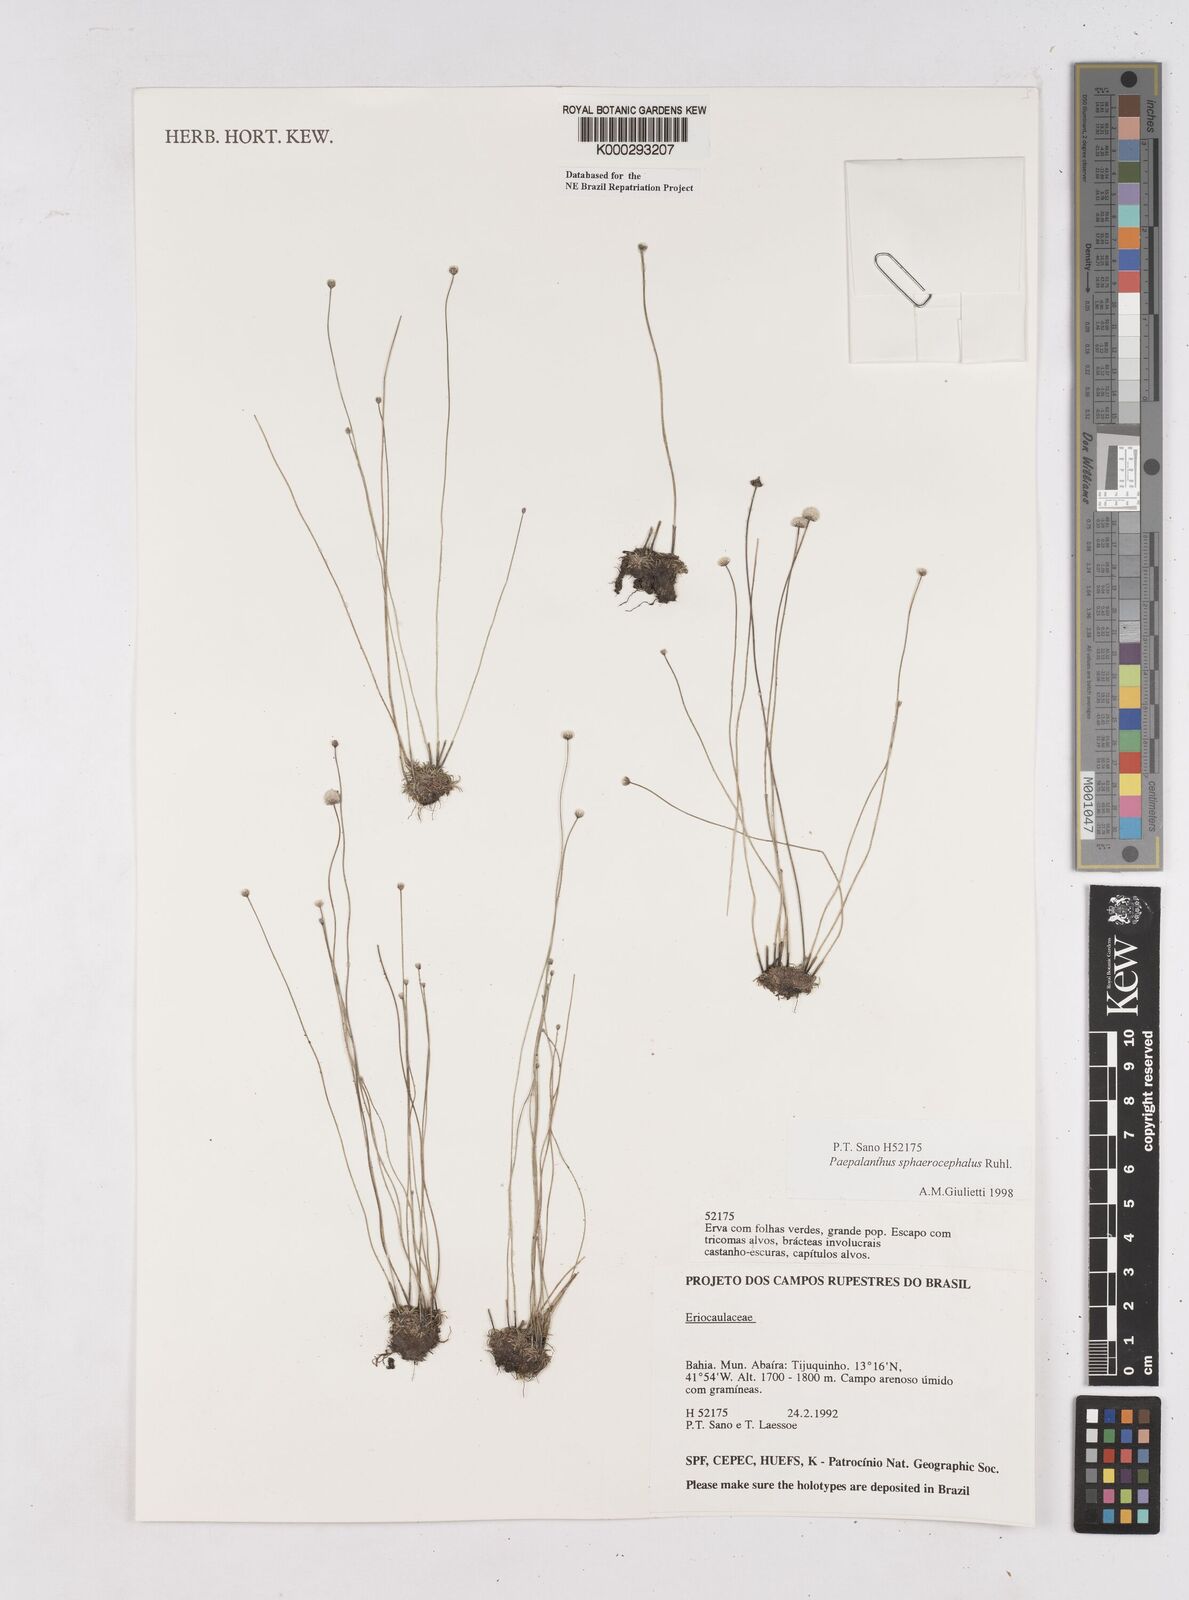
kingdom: Plantae
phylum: Tracheophyta
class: Liliopsida
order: Poales
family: Eriocaulaceae
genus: Paepalanthus
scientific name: Paepalanthus sphaerocephalus
